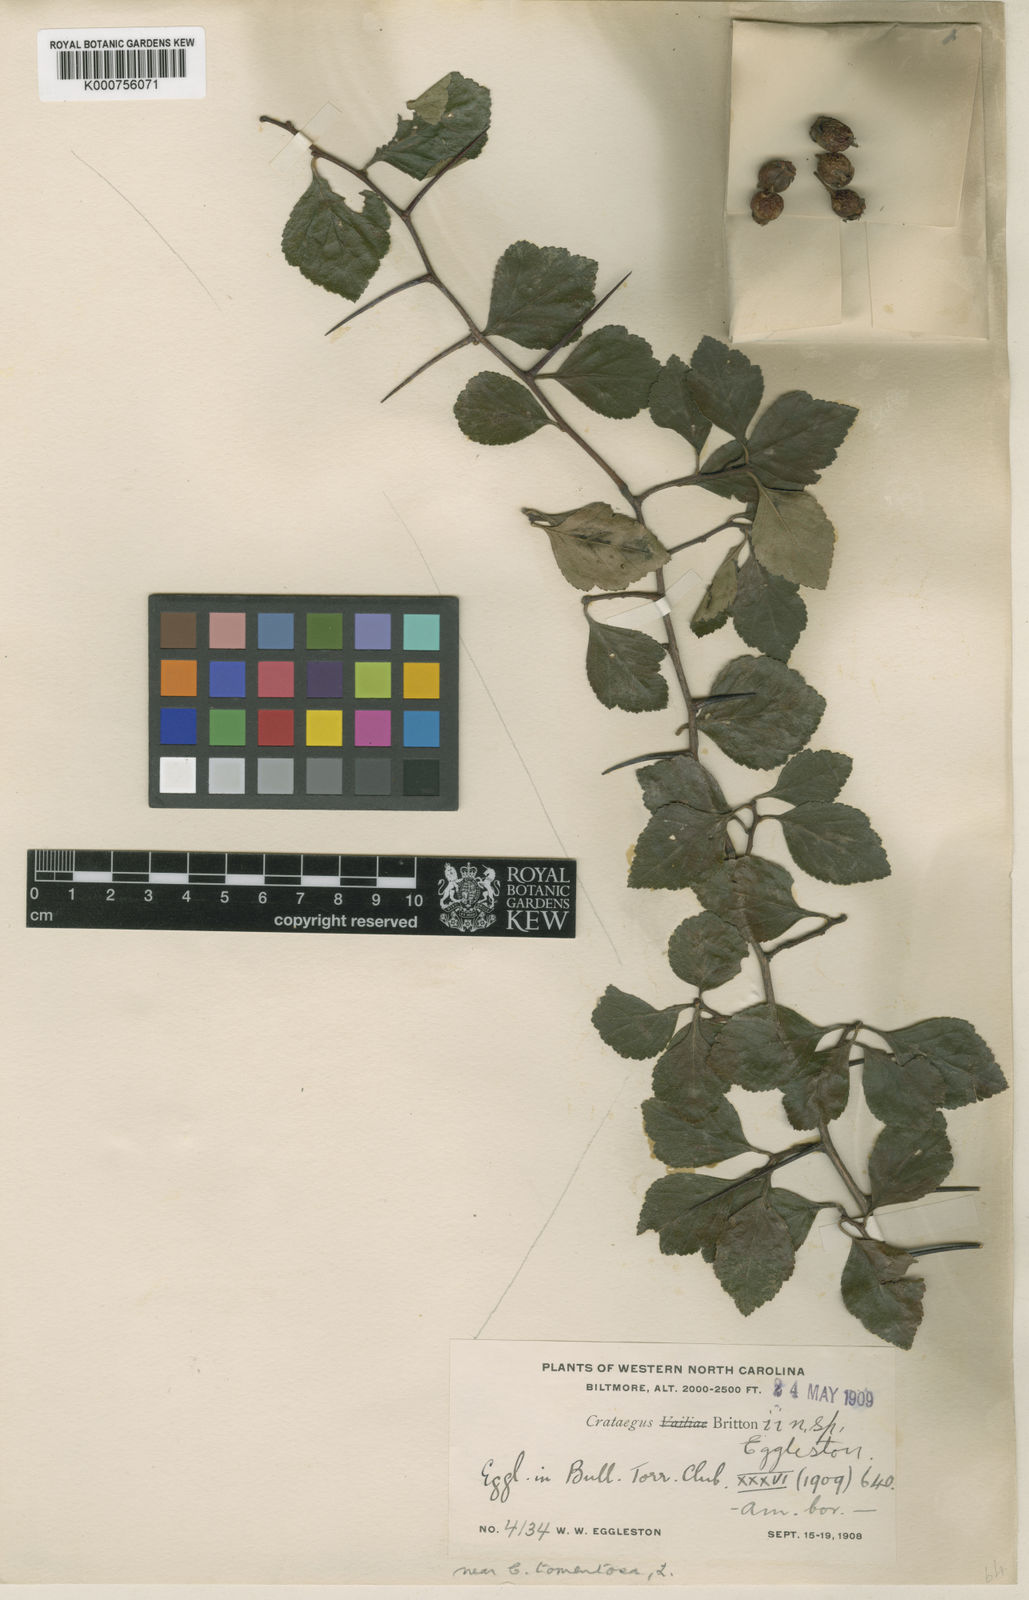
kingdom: Plantae
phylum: Tracheophyta
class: Magnoliopsida
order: Rosales
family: Rosaceae
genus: Crataegus
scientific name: Crataegus uniflora
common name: One-flower hawthorn
